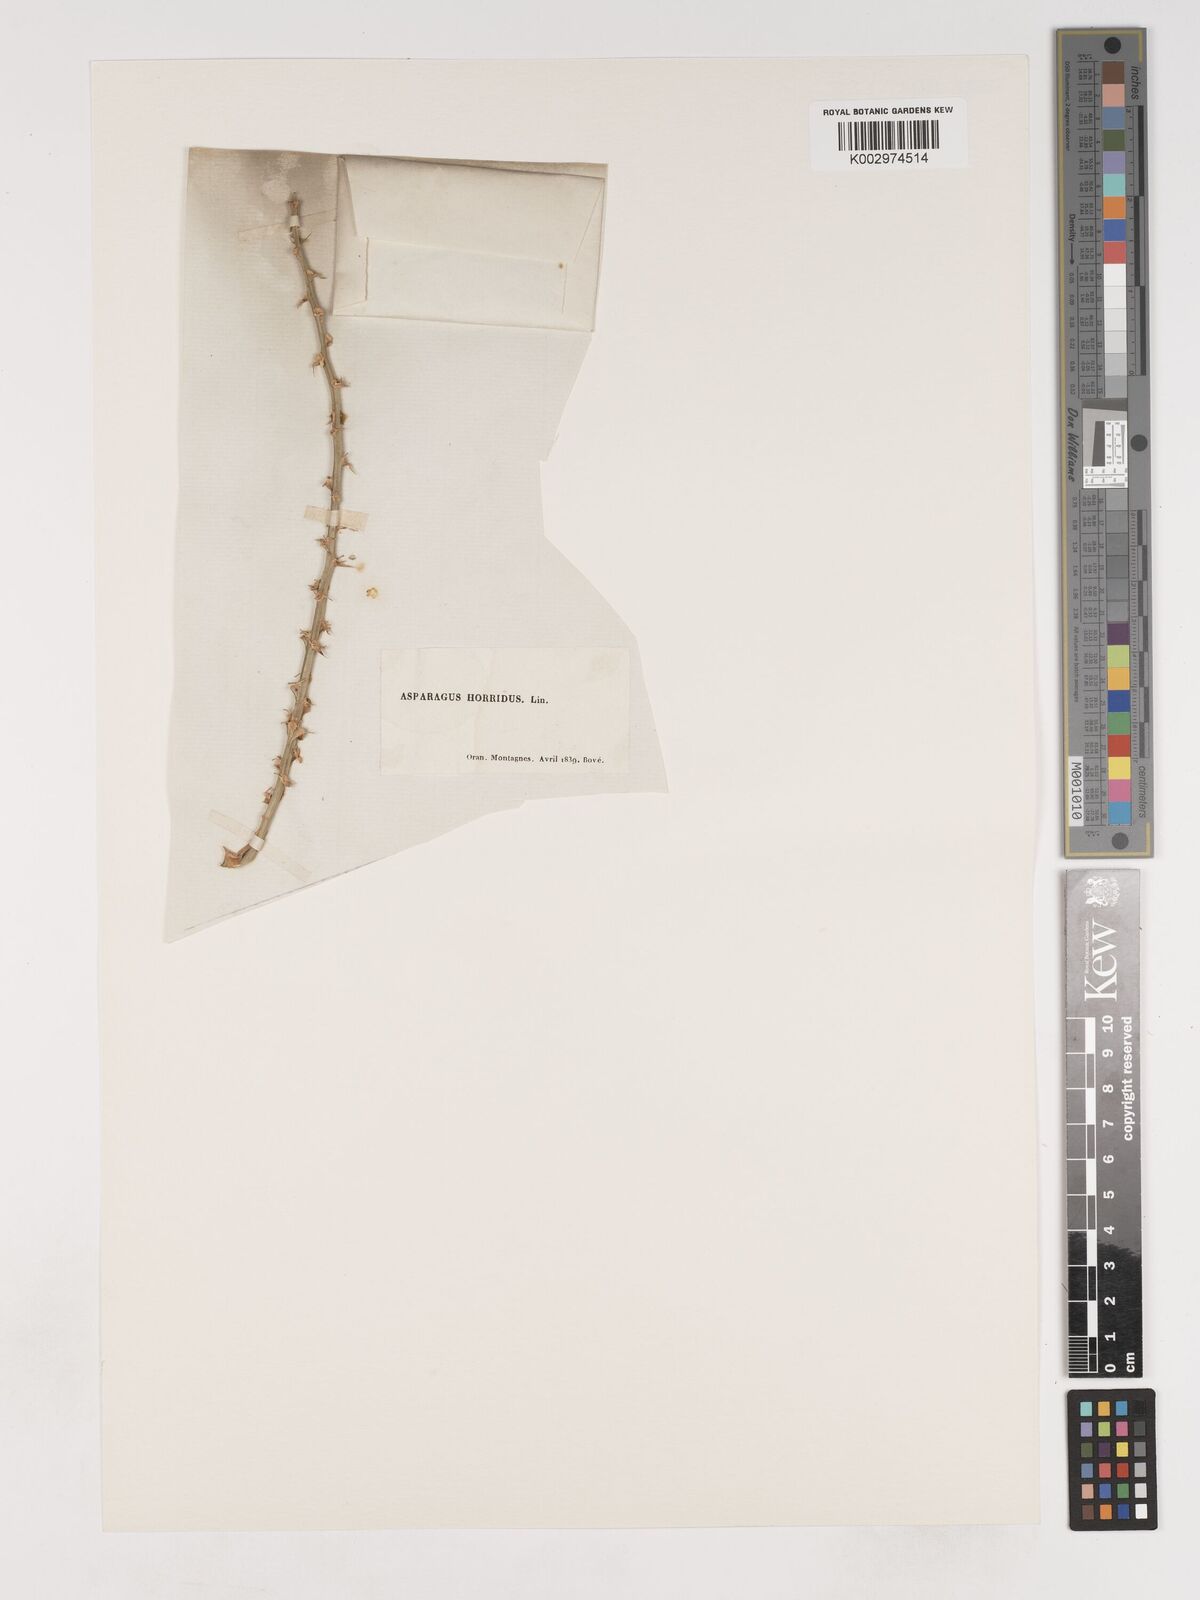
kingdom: Plantae
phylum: Tracheophyta
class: Liliopsida
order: Asparagales
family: Asparagaceae
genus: Asparagus
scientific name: Asparagus horridus
